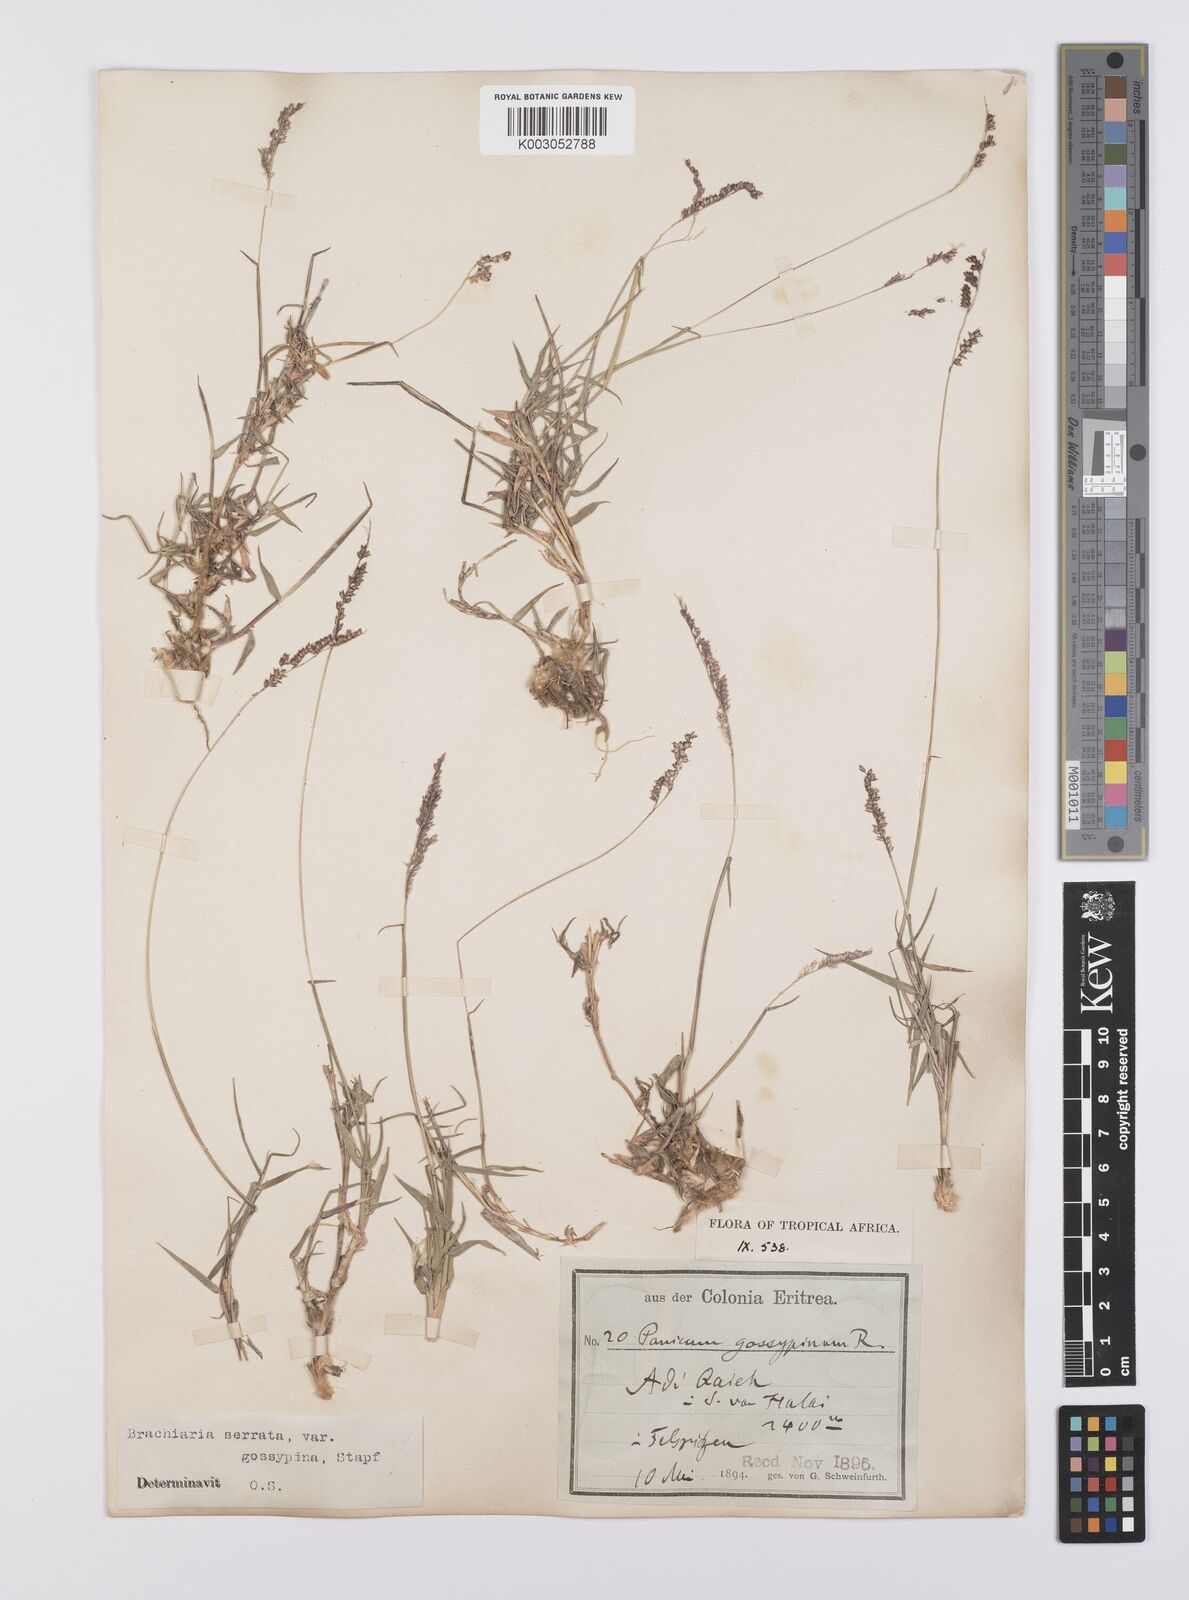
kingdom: Plantae
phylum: Tracheophyta
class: Liliopsida
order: Poales
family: Poaceae
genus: Urochloa
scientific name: Urochloa serrata
